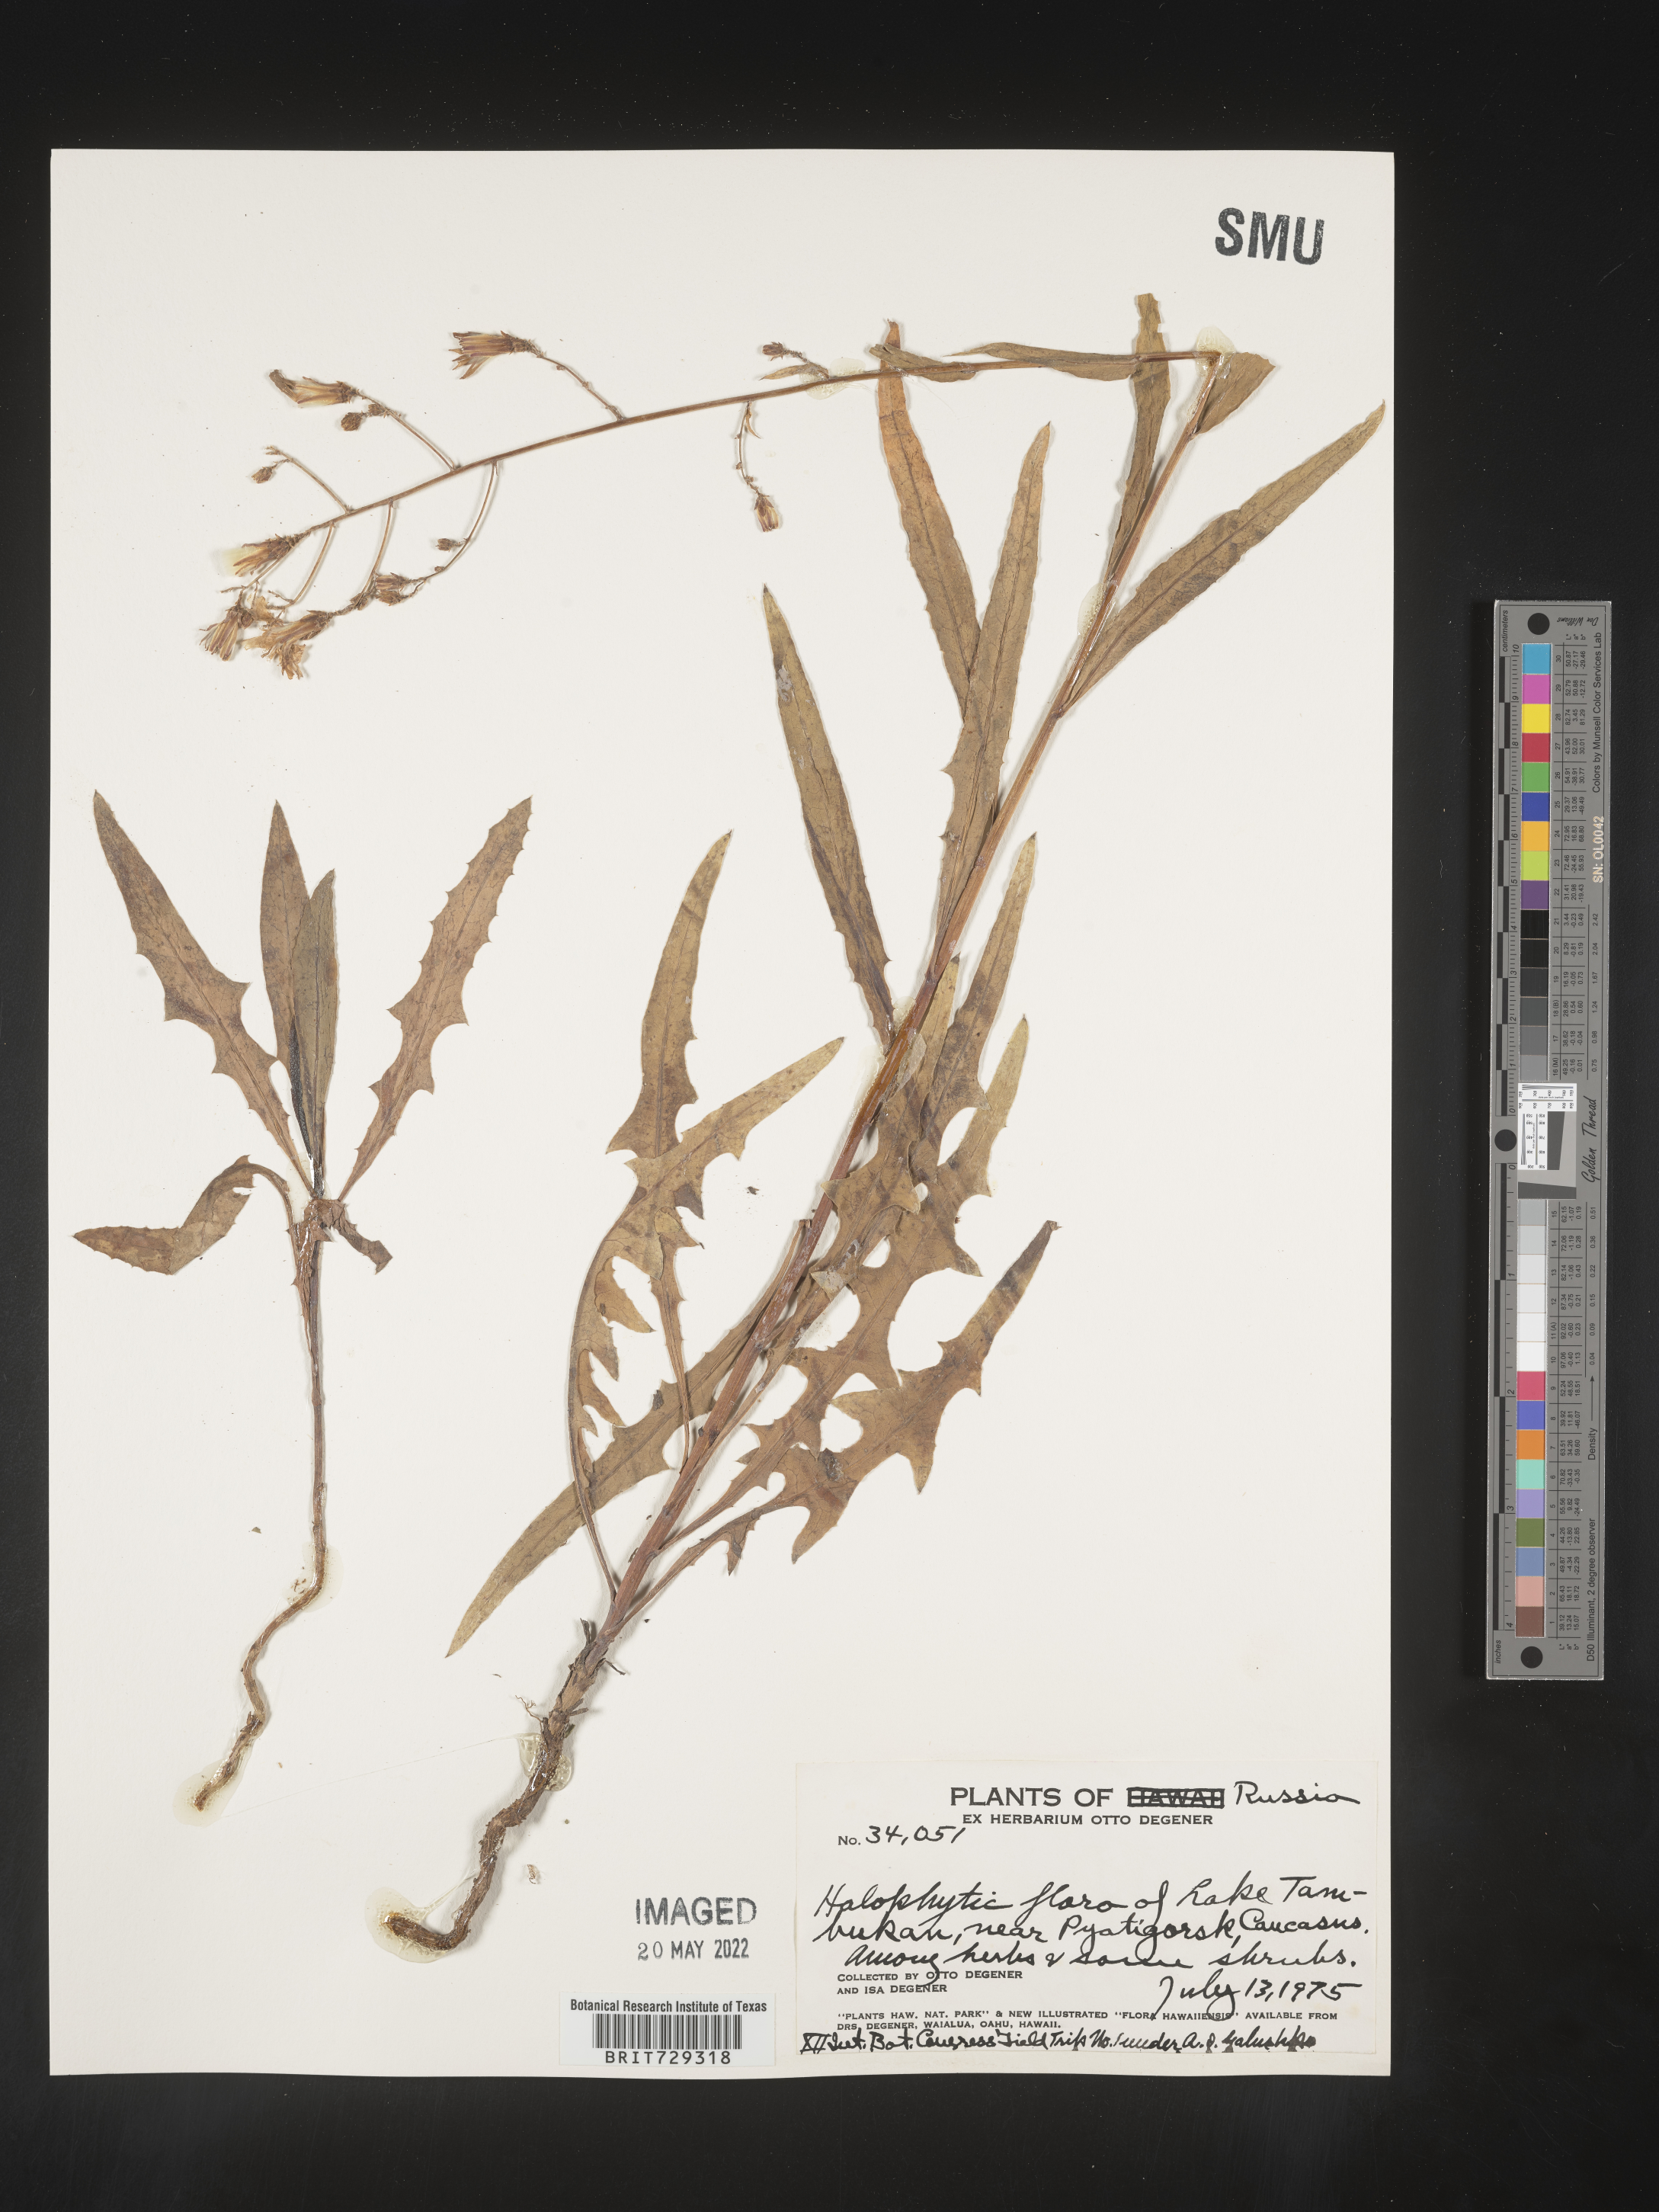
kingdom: Plantae
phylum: Tracheophyta
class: Magnoliopsida
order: Asterales
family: Asteraceae
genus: Lactuca
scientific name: Lactuca
